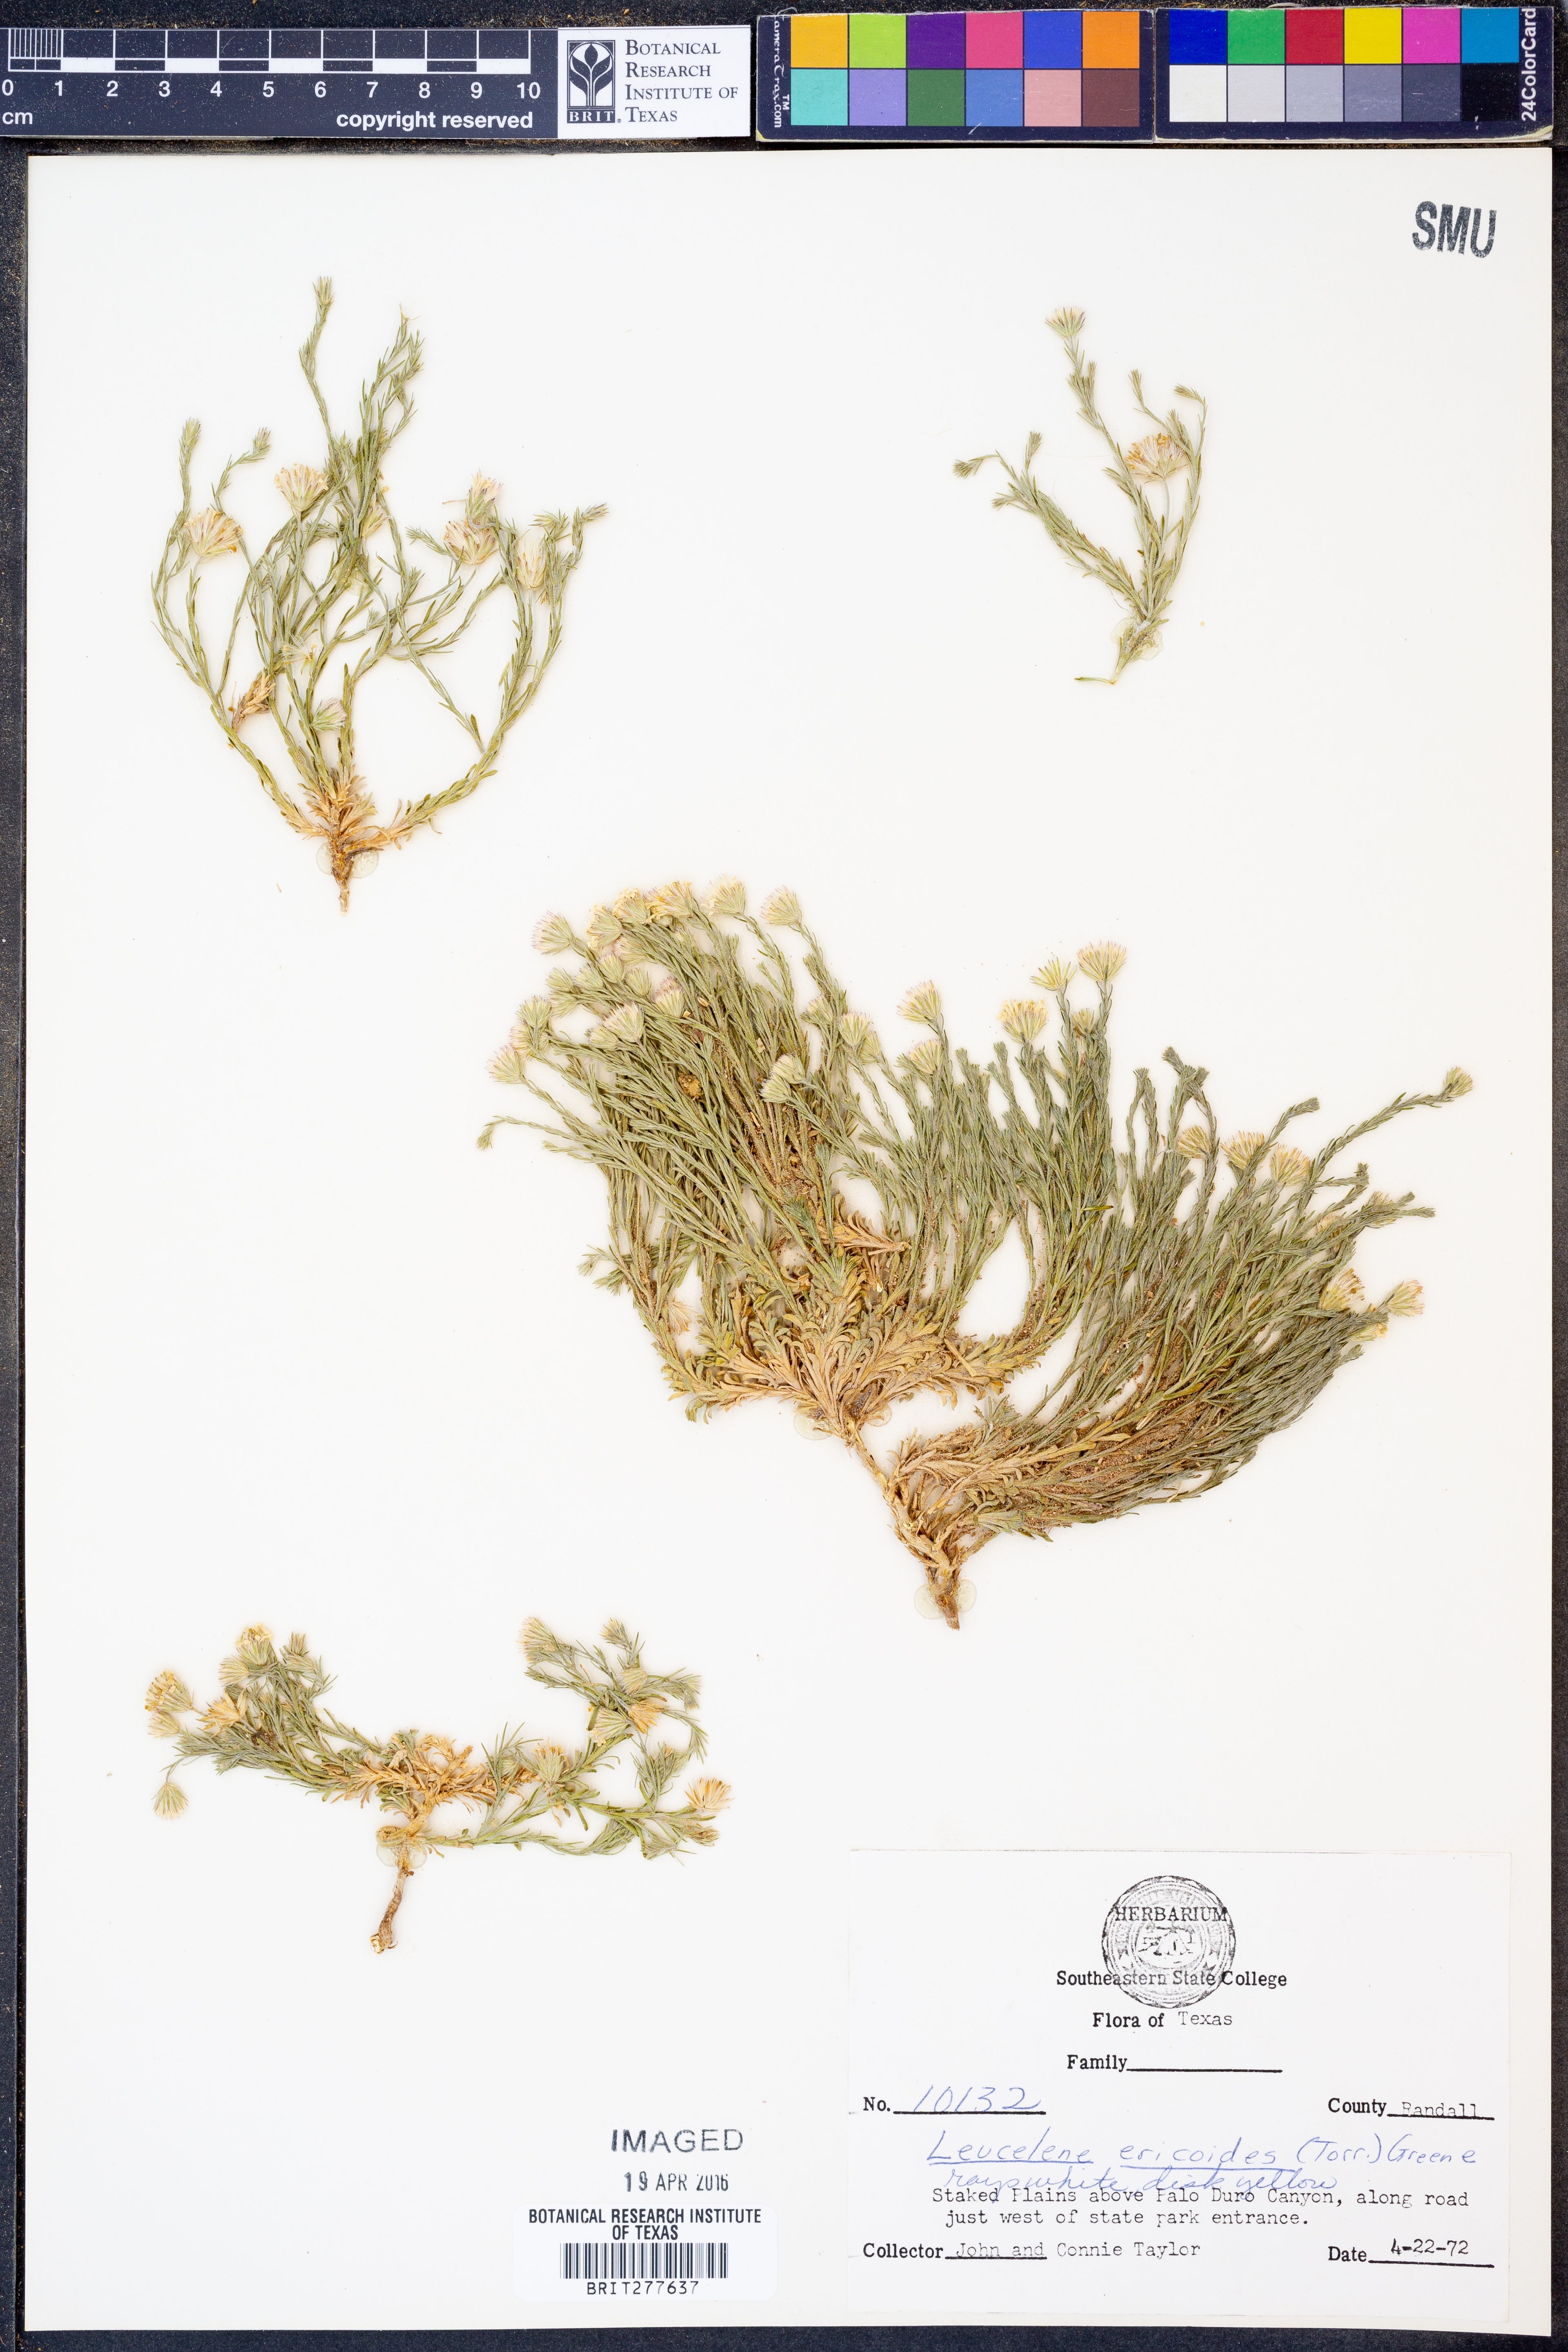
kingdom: Plantae
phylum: Tracheophyta
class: Magnoliopsida
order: Asterales
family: Asteraceae
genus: Chaetopappa
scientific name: Chaetopappa ericoides
